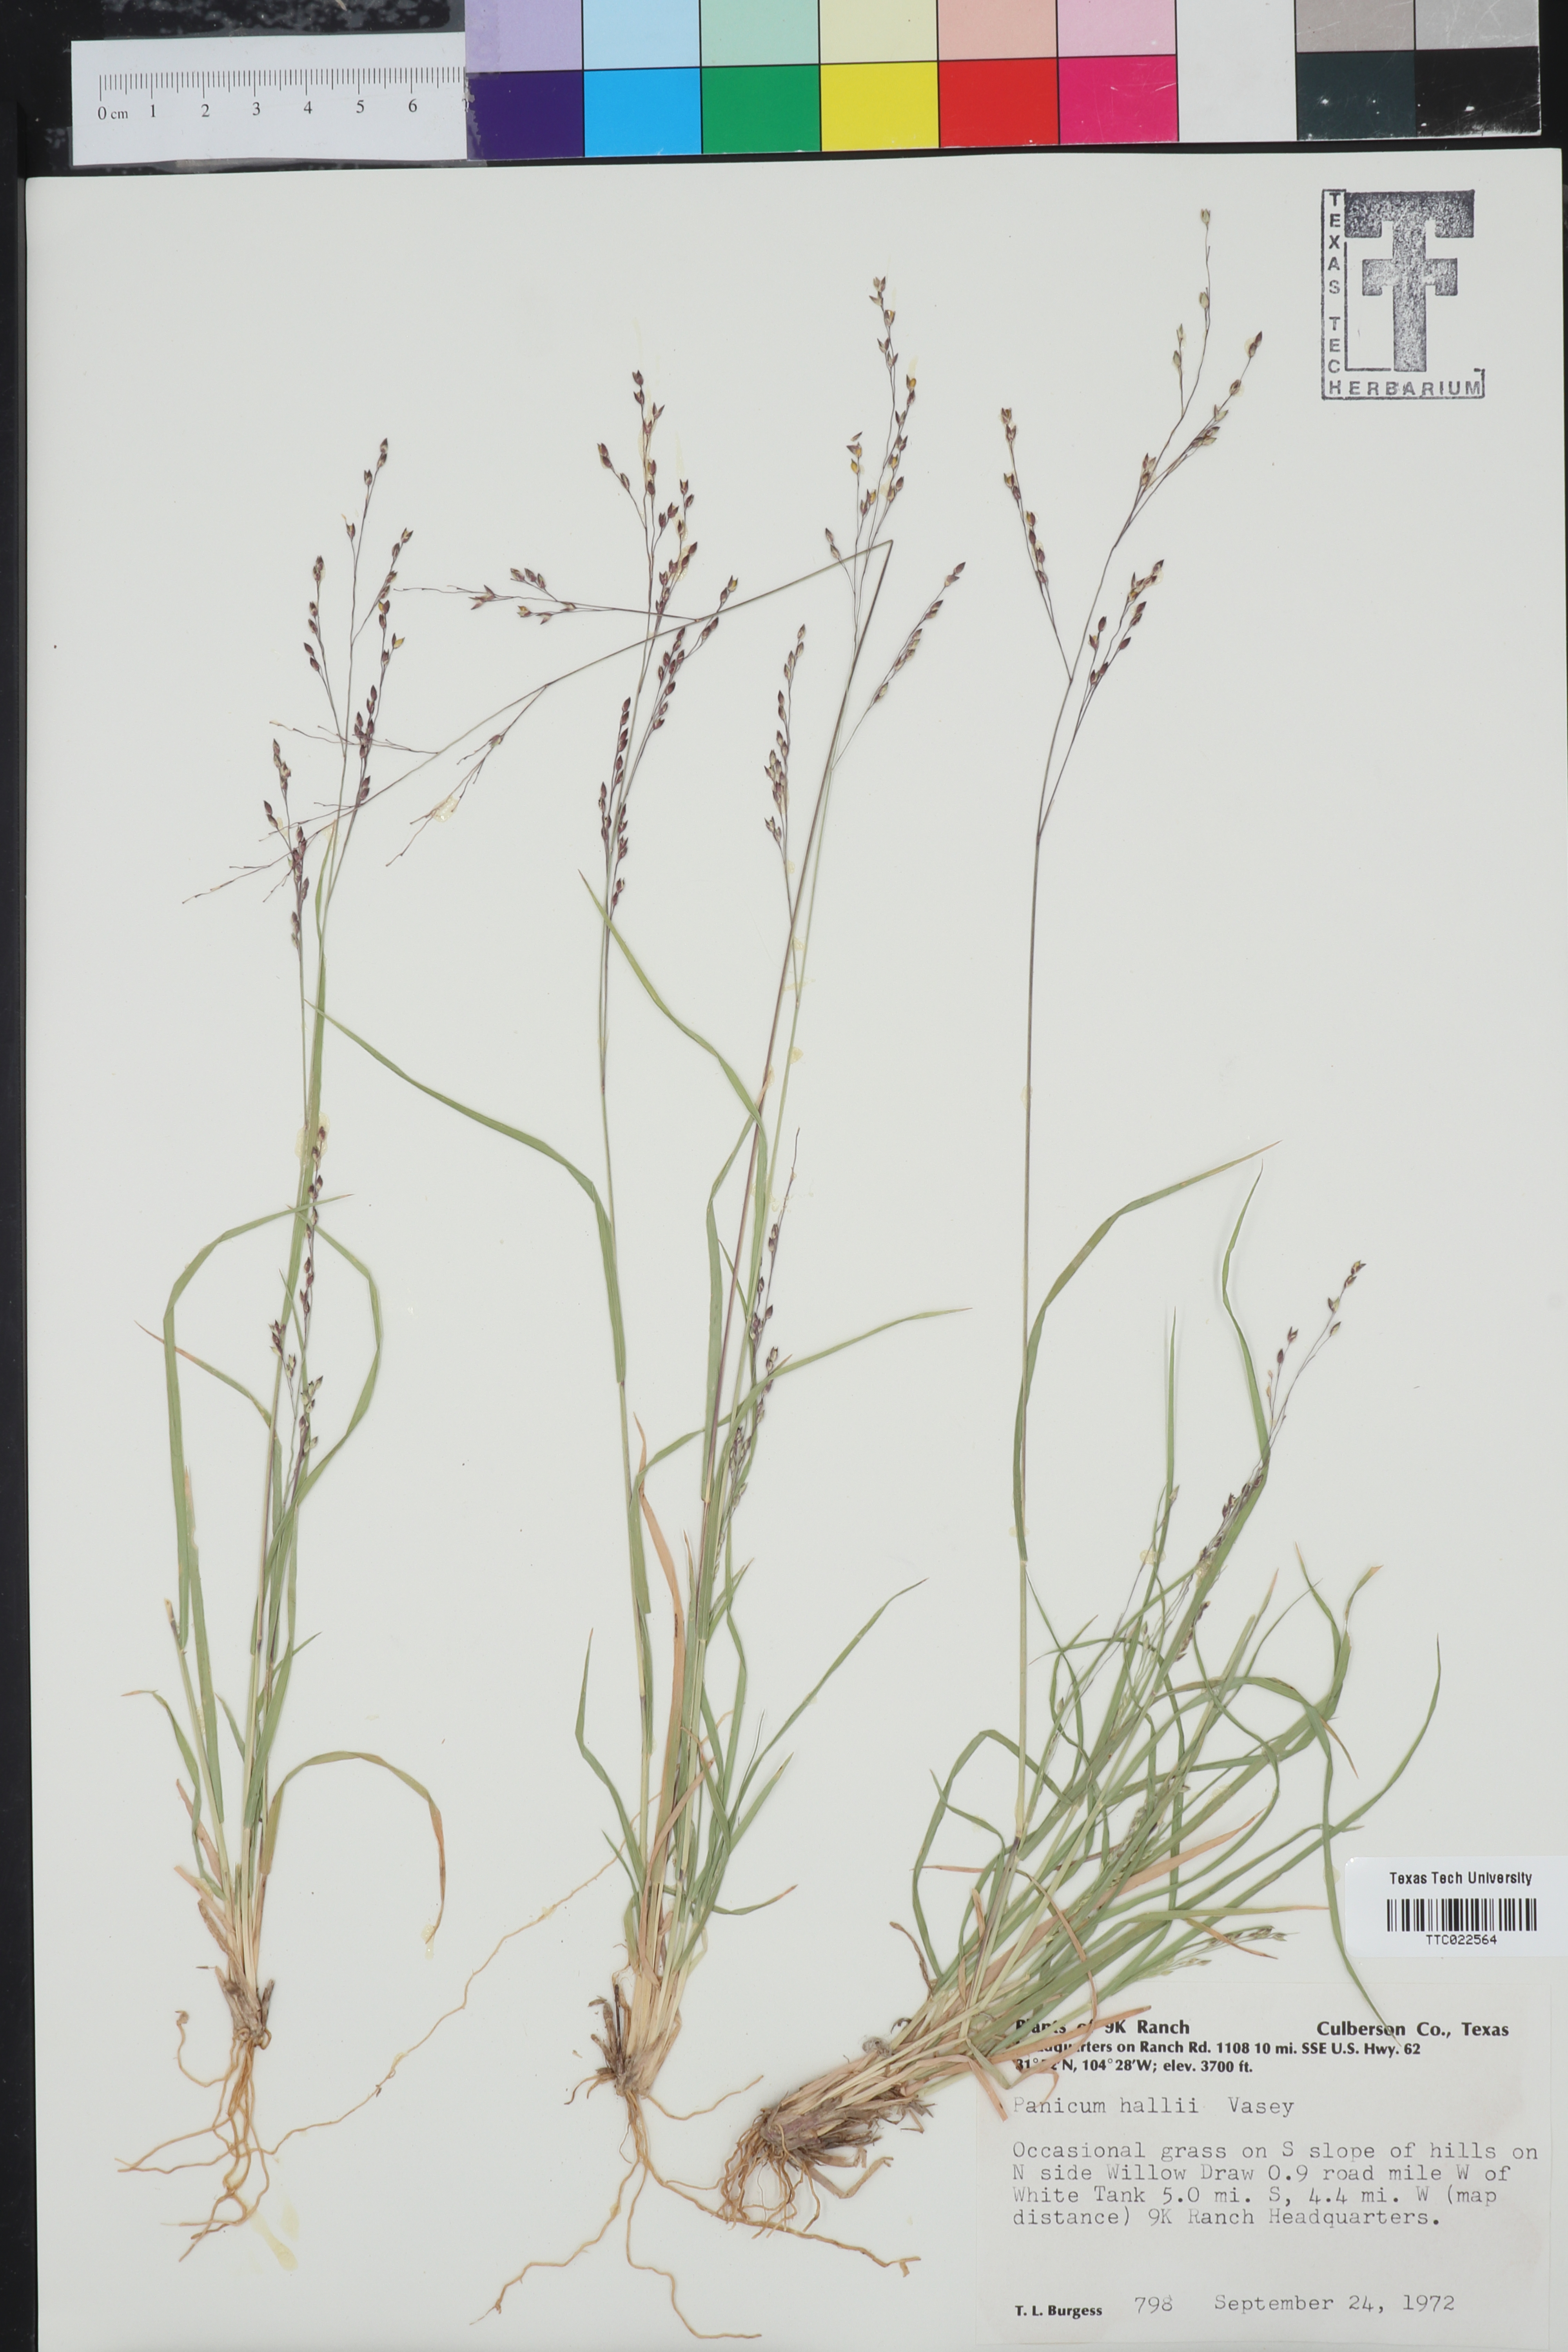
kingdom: Plantae
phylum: Tracheophyta
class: Liliopsida
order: Poales
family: Poaceae
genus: Panicum
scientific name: Panicum hallii
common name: Hall's witchgrass
